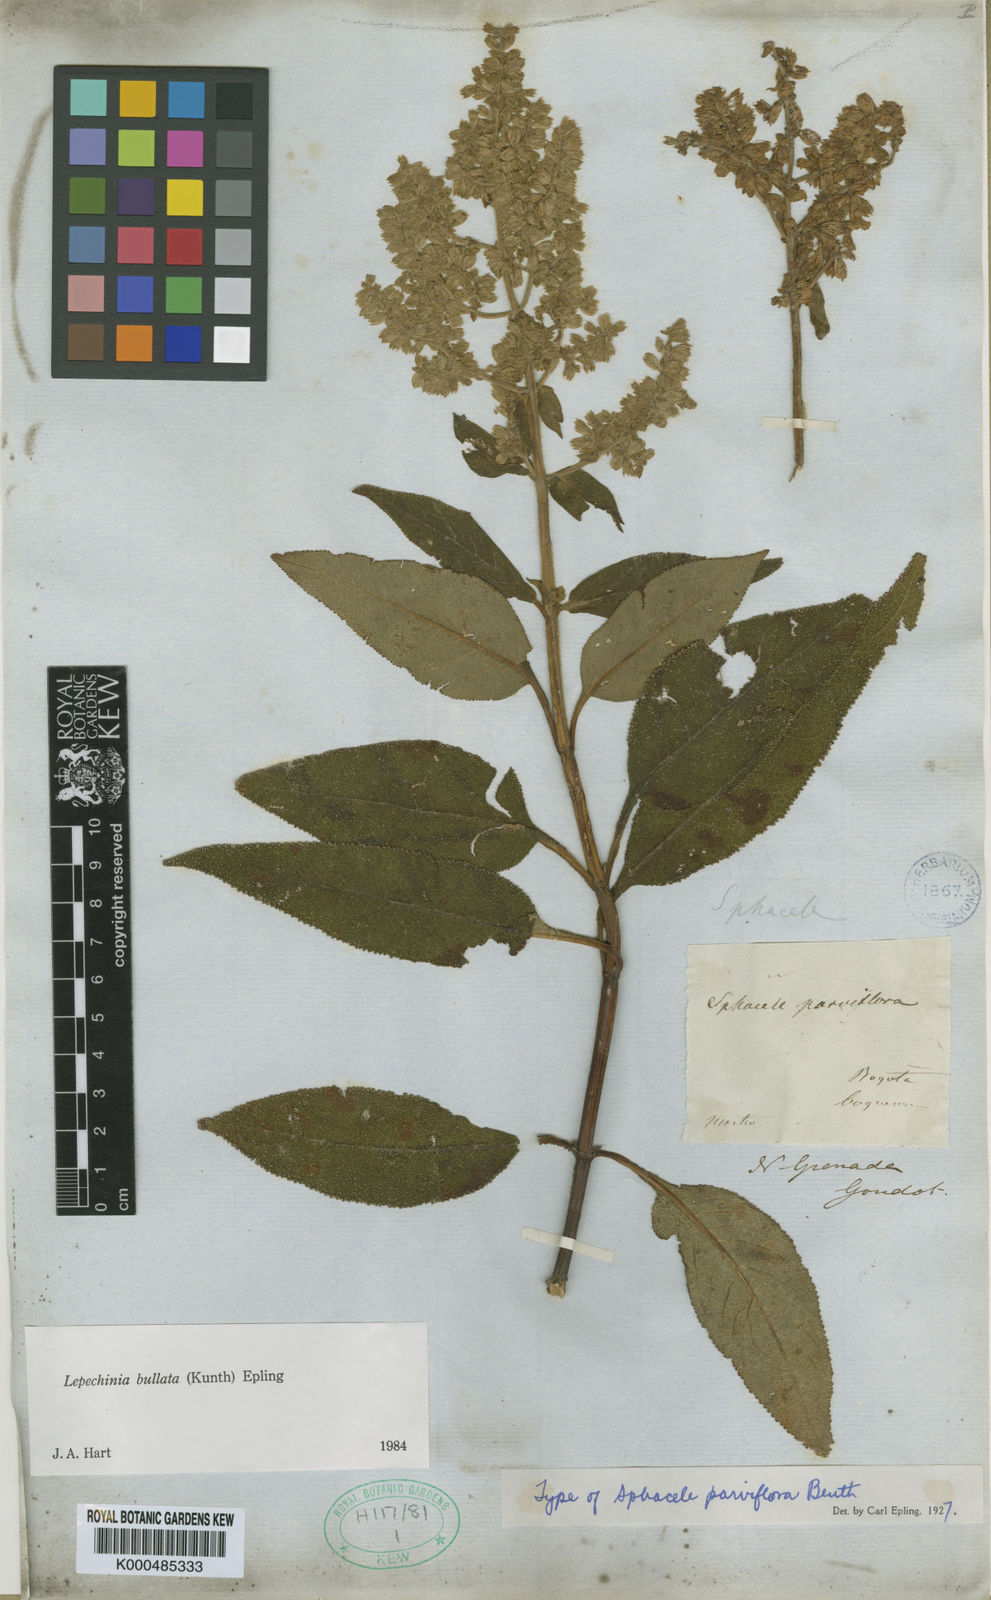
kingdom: Plantae
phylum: Tracheophyta
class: Magnoliopsida
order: Lamiales
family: Lamiaceae
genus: Lepechinia
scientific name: Lepechinia bullata
